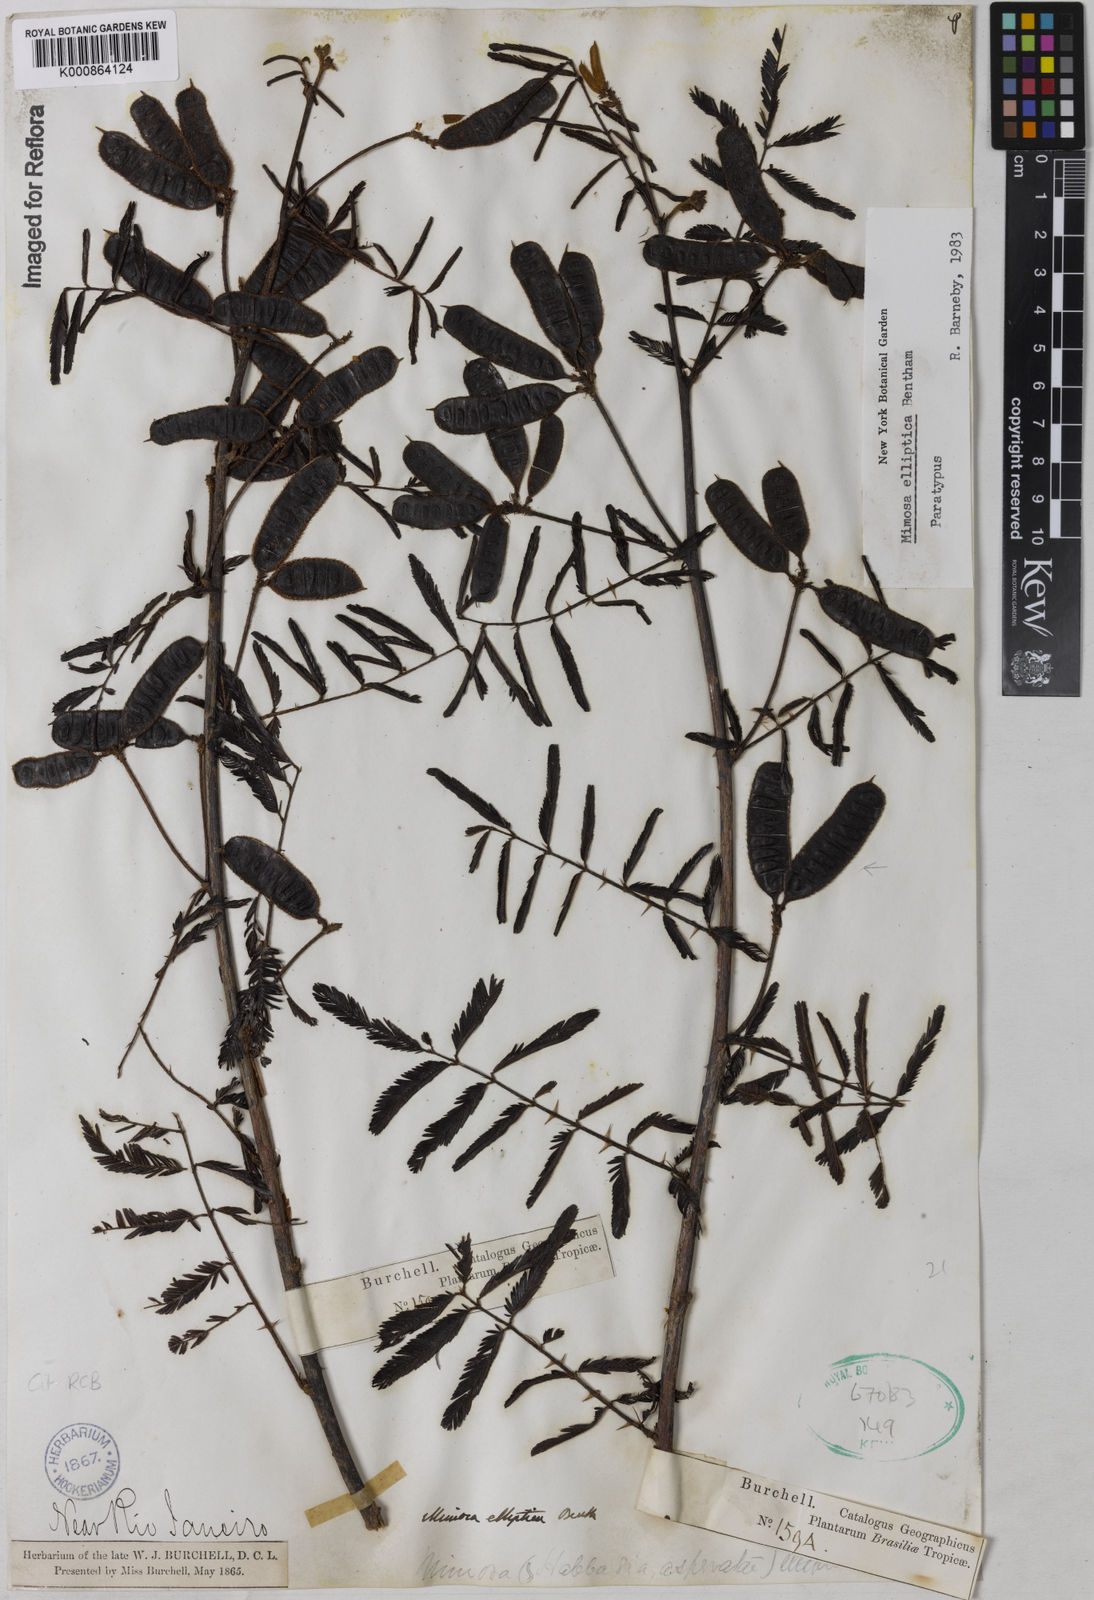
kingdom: Plantae
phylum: Tracheophyta
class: Magnoliopsida
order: Fabales
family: Fabaceae
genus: Mimosa
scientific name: Mimosa elliptica
